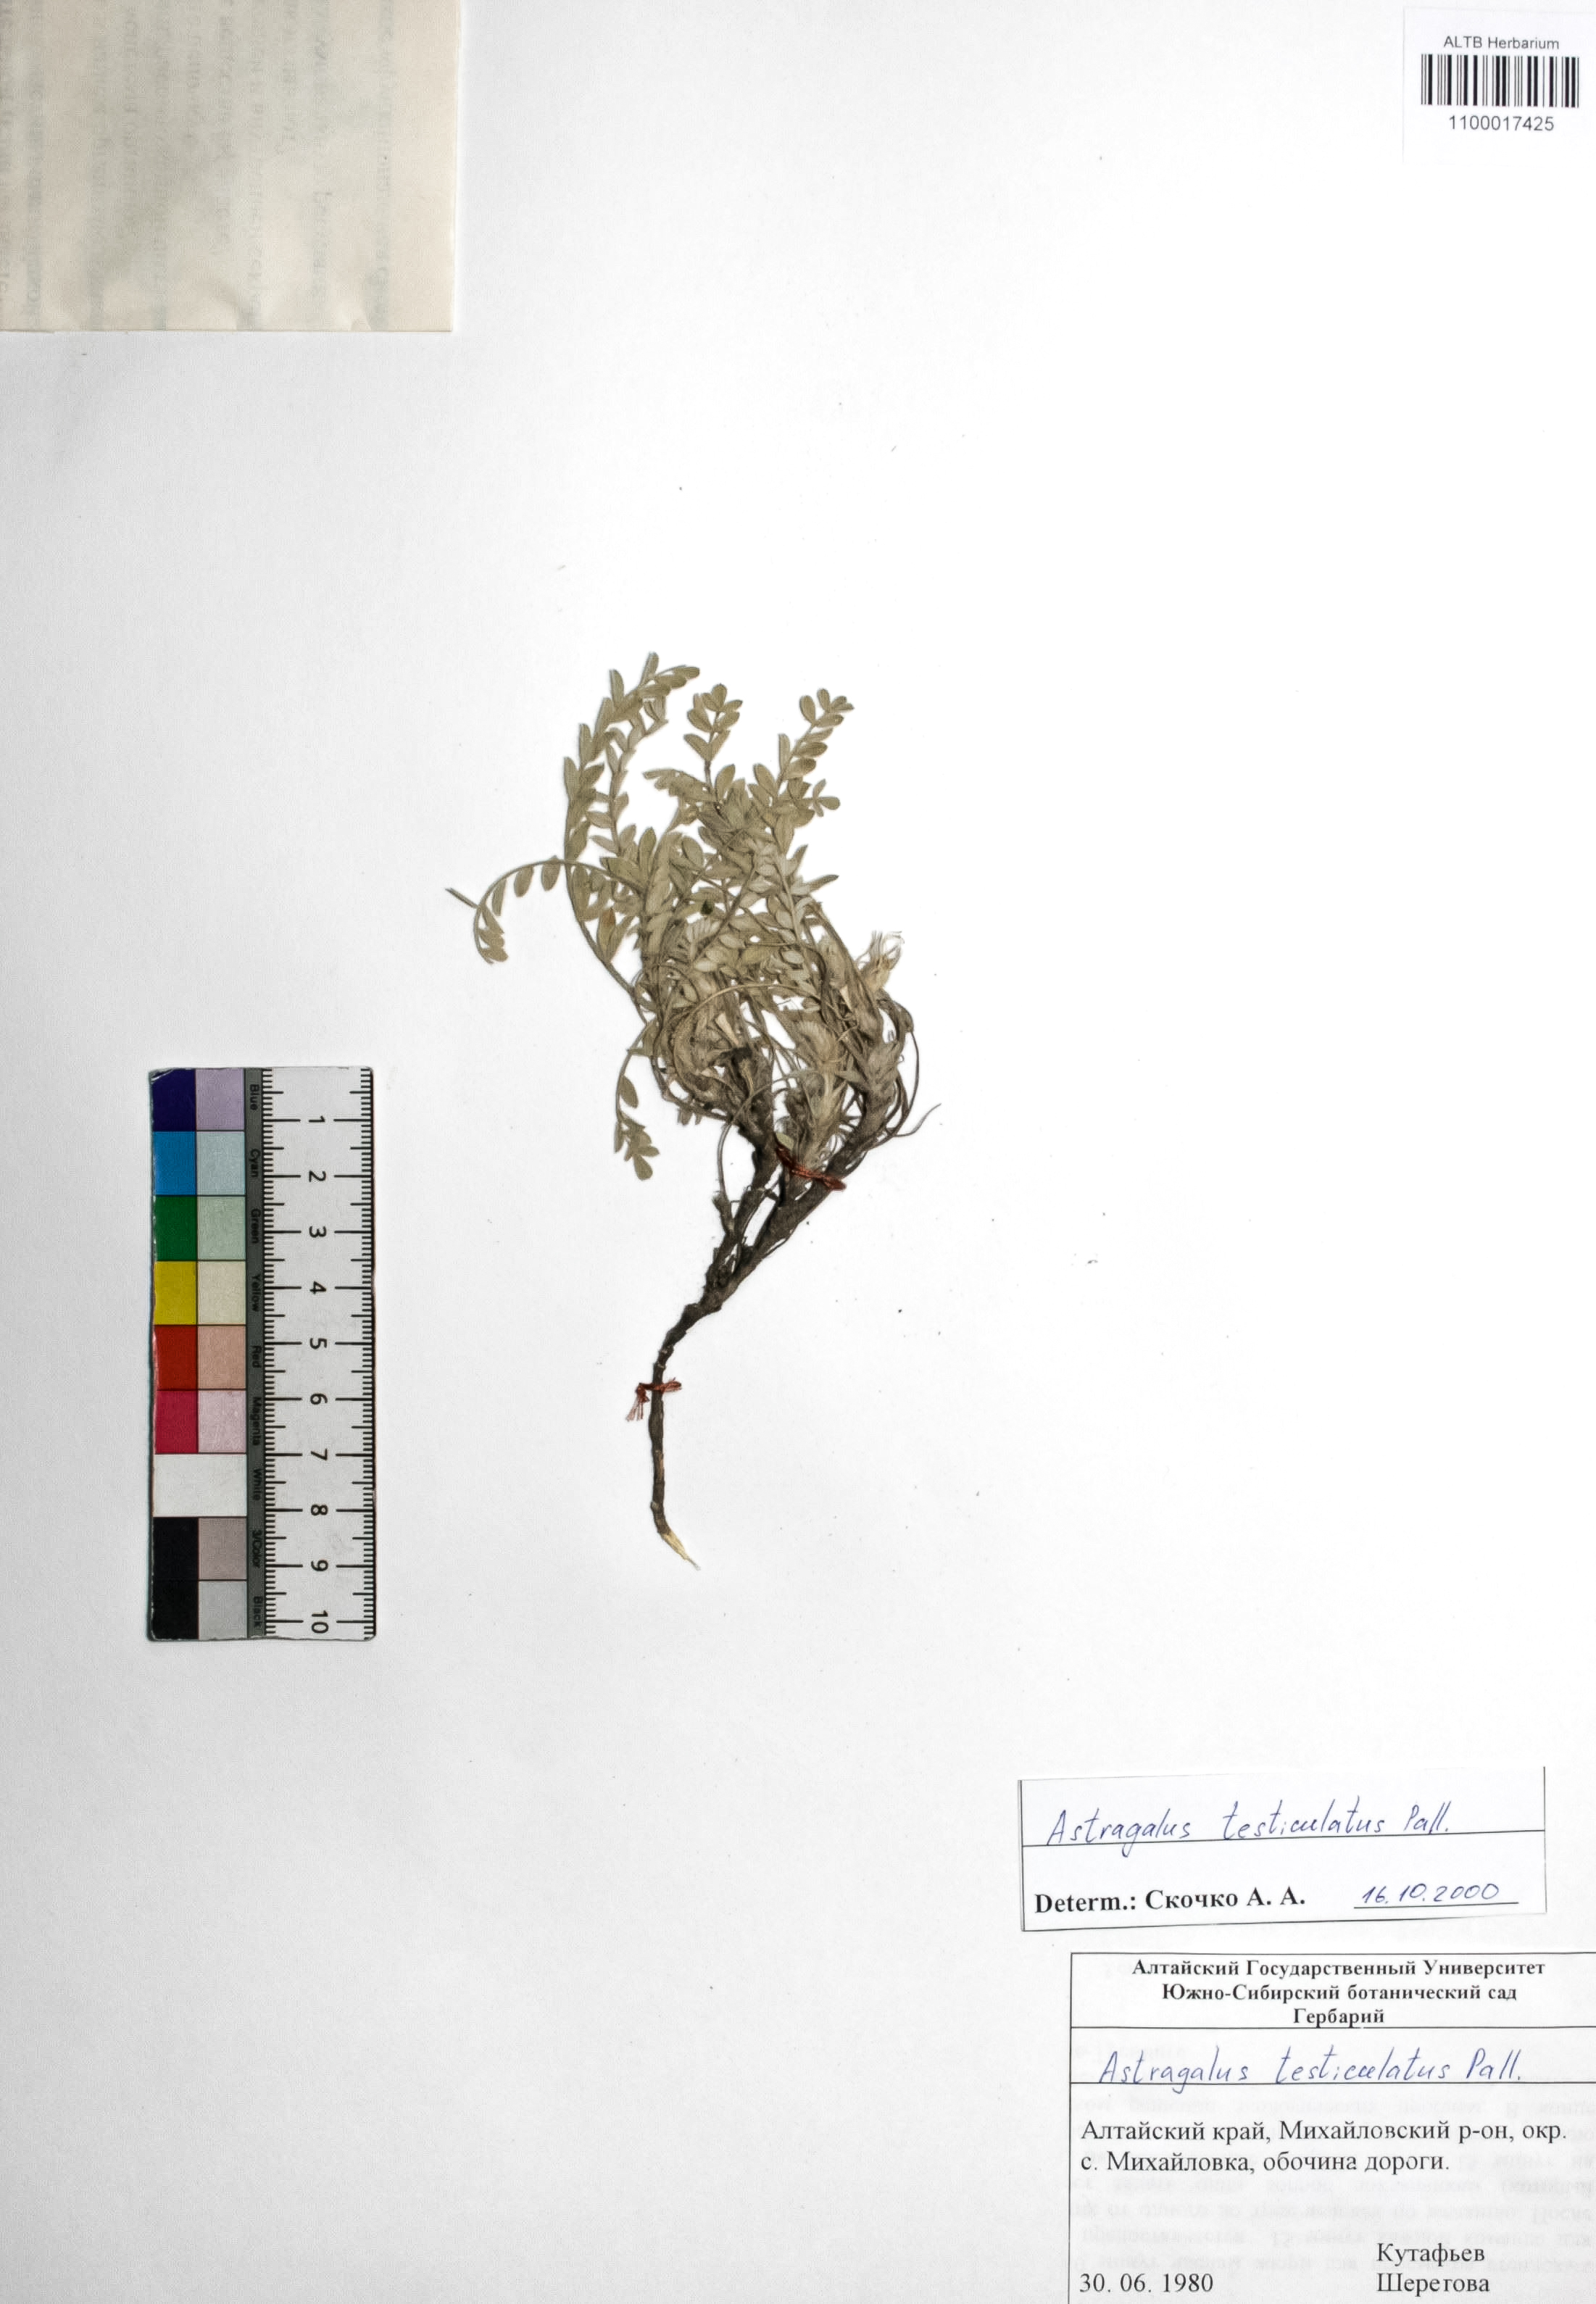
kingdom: Plantae
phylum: Tracheophyta
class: Magnoliopsida
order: Fabales
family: Fabaceae
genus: Astragalus
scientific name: Astragalus testiculatus
